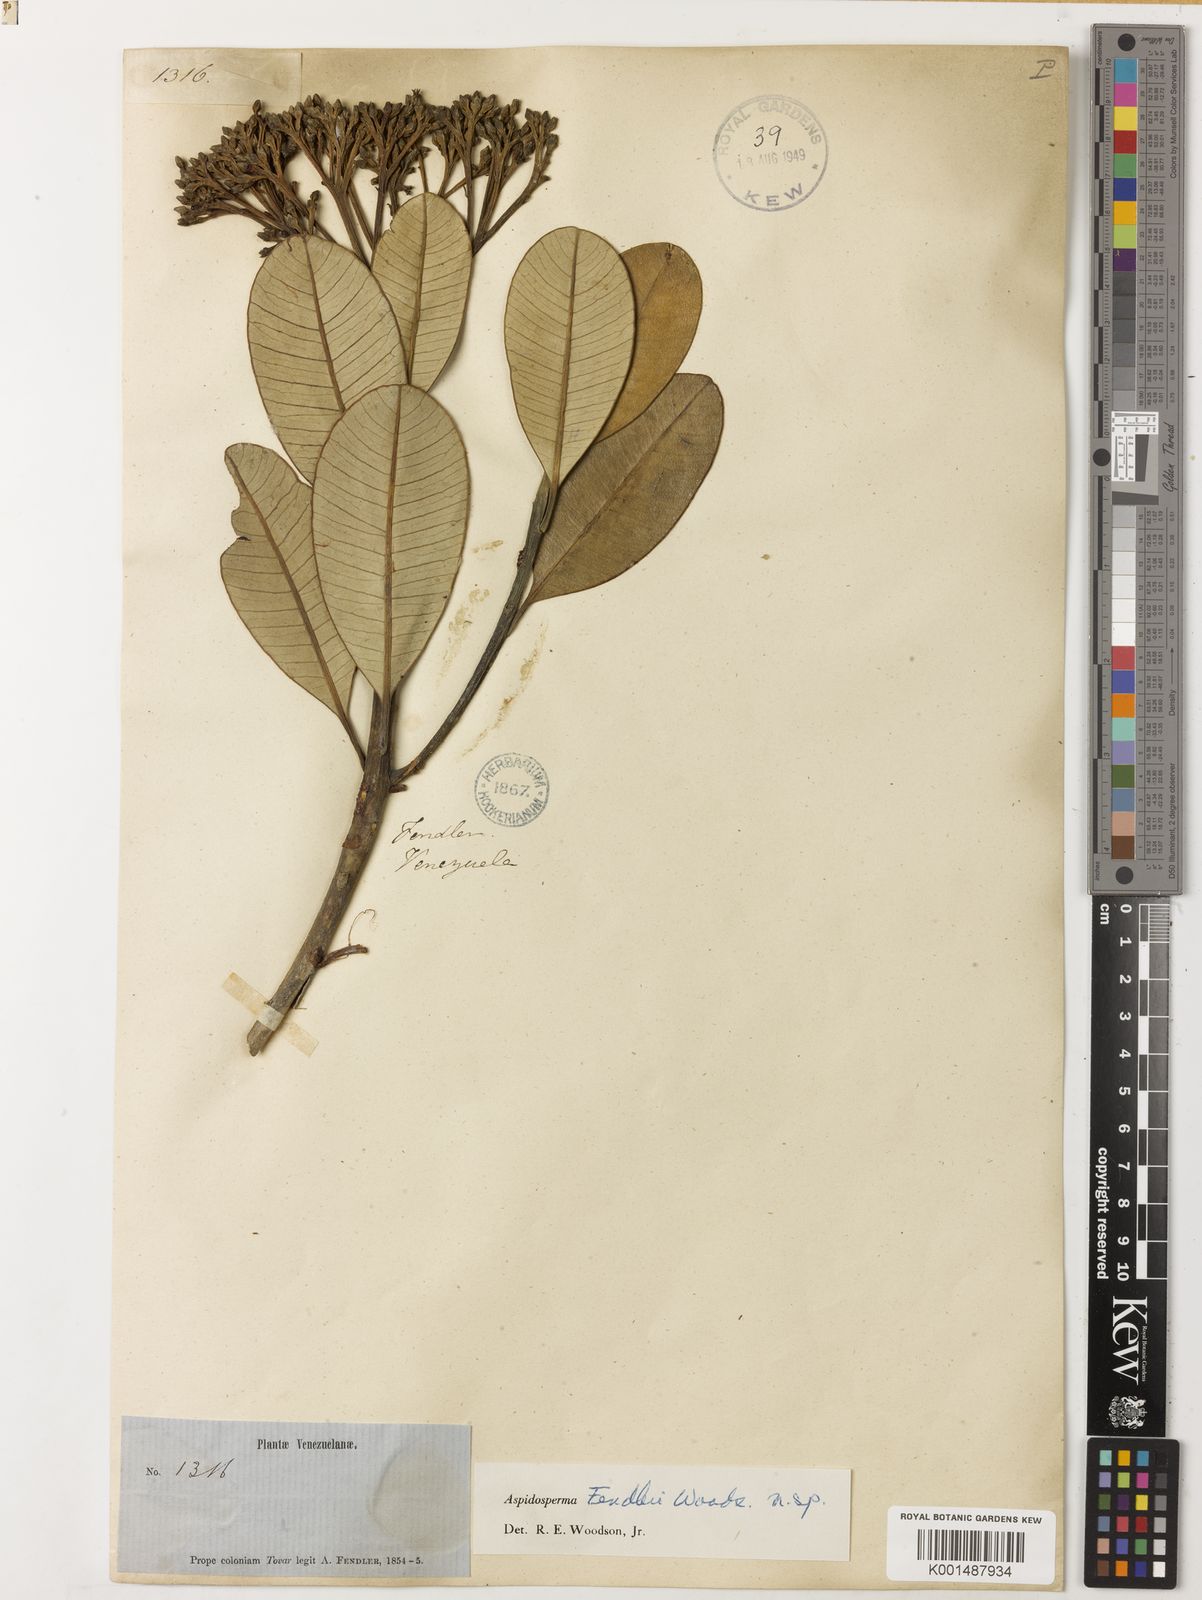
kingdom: Plantae
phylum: Tracheophyta
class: Magnoliopsida
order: Gentianales
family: Apocynaceae
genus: Aspidosperma
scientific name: Aspidosperma fendleri
